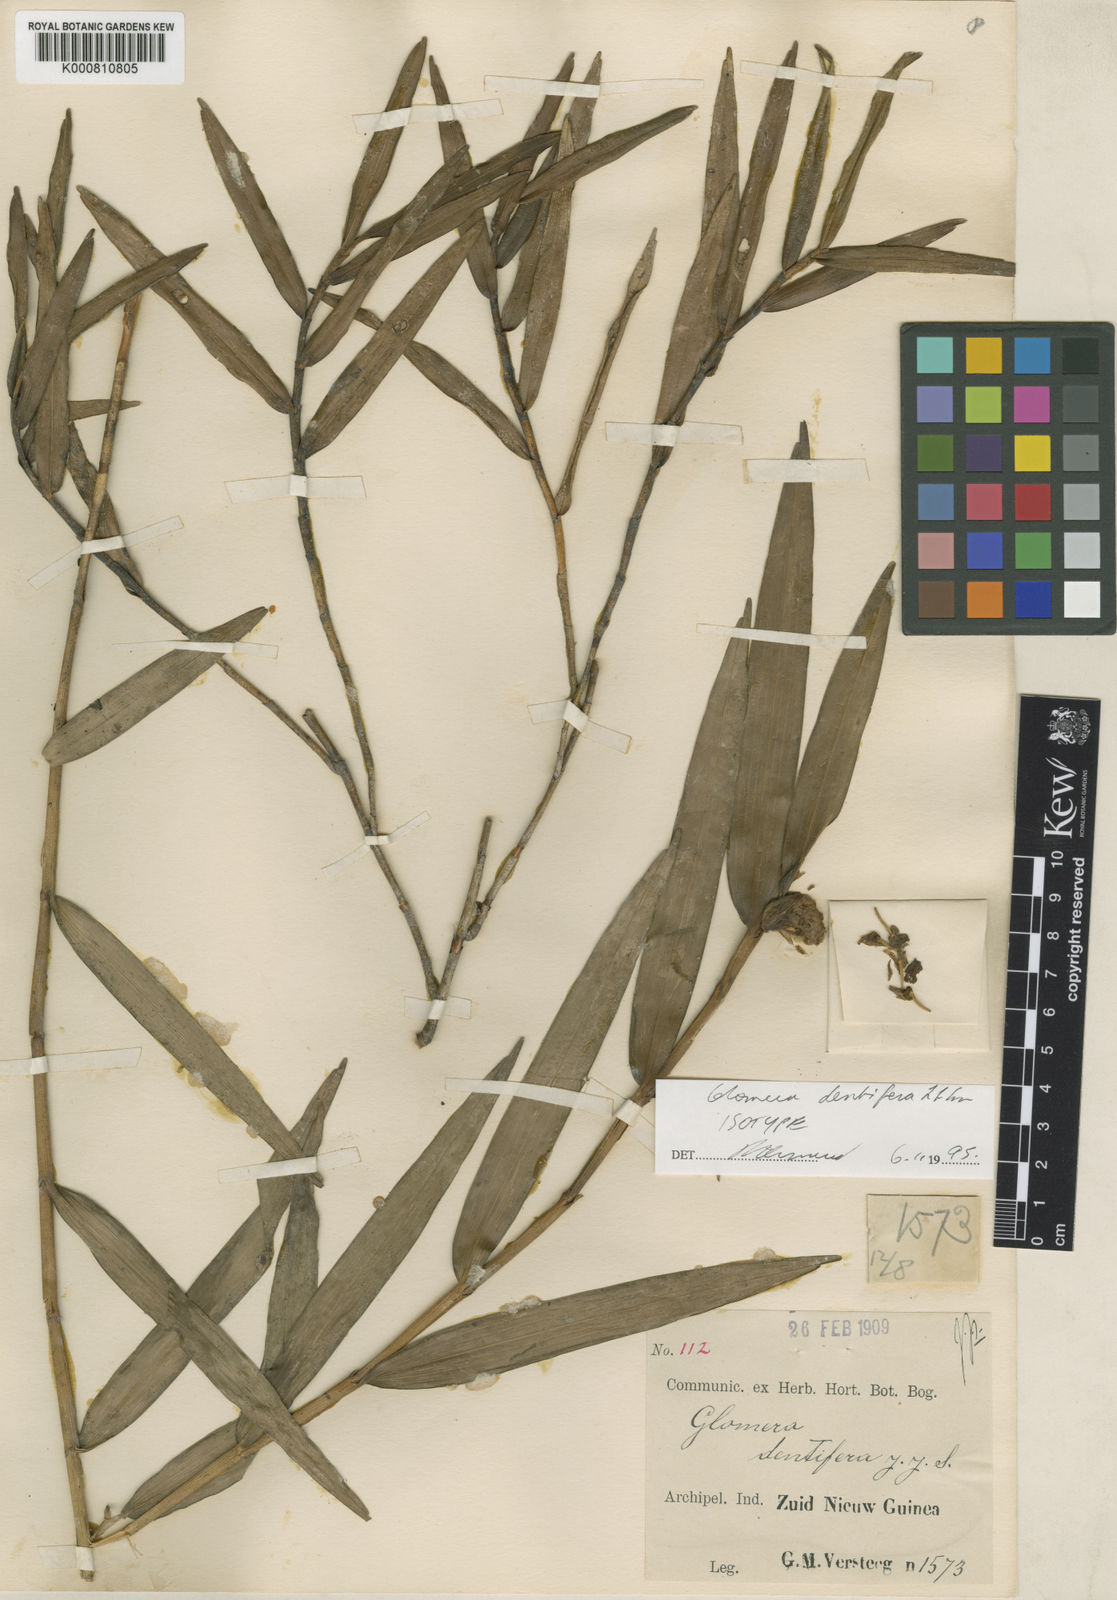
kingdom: Plantae
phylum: Tracheophyta
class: Liliopsida
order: Asparagales
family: Orchidaceae
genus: Glomera
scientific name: Glomera dentifera
